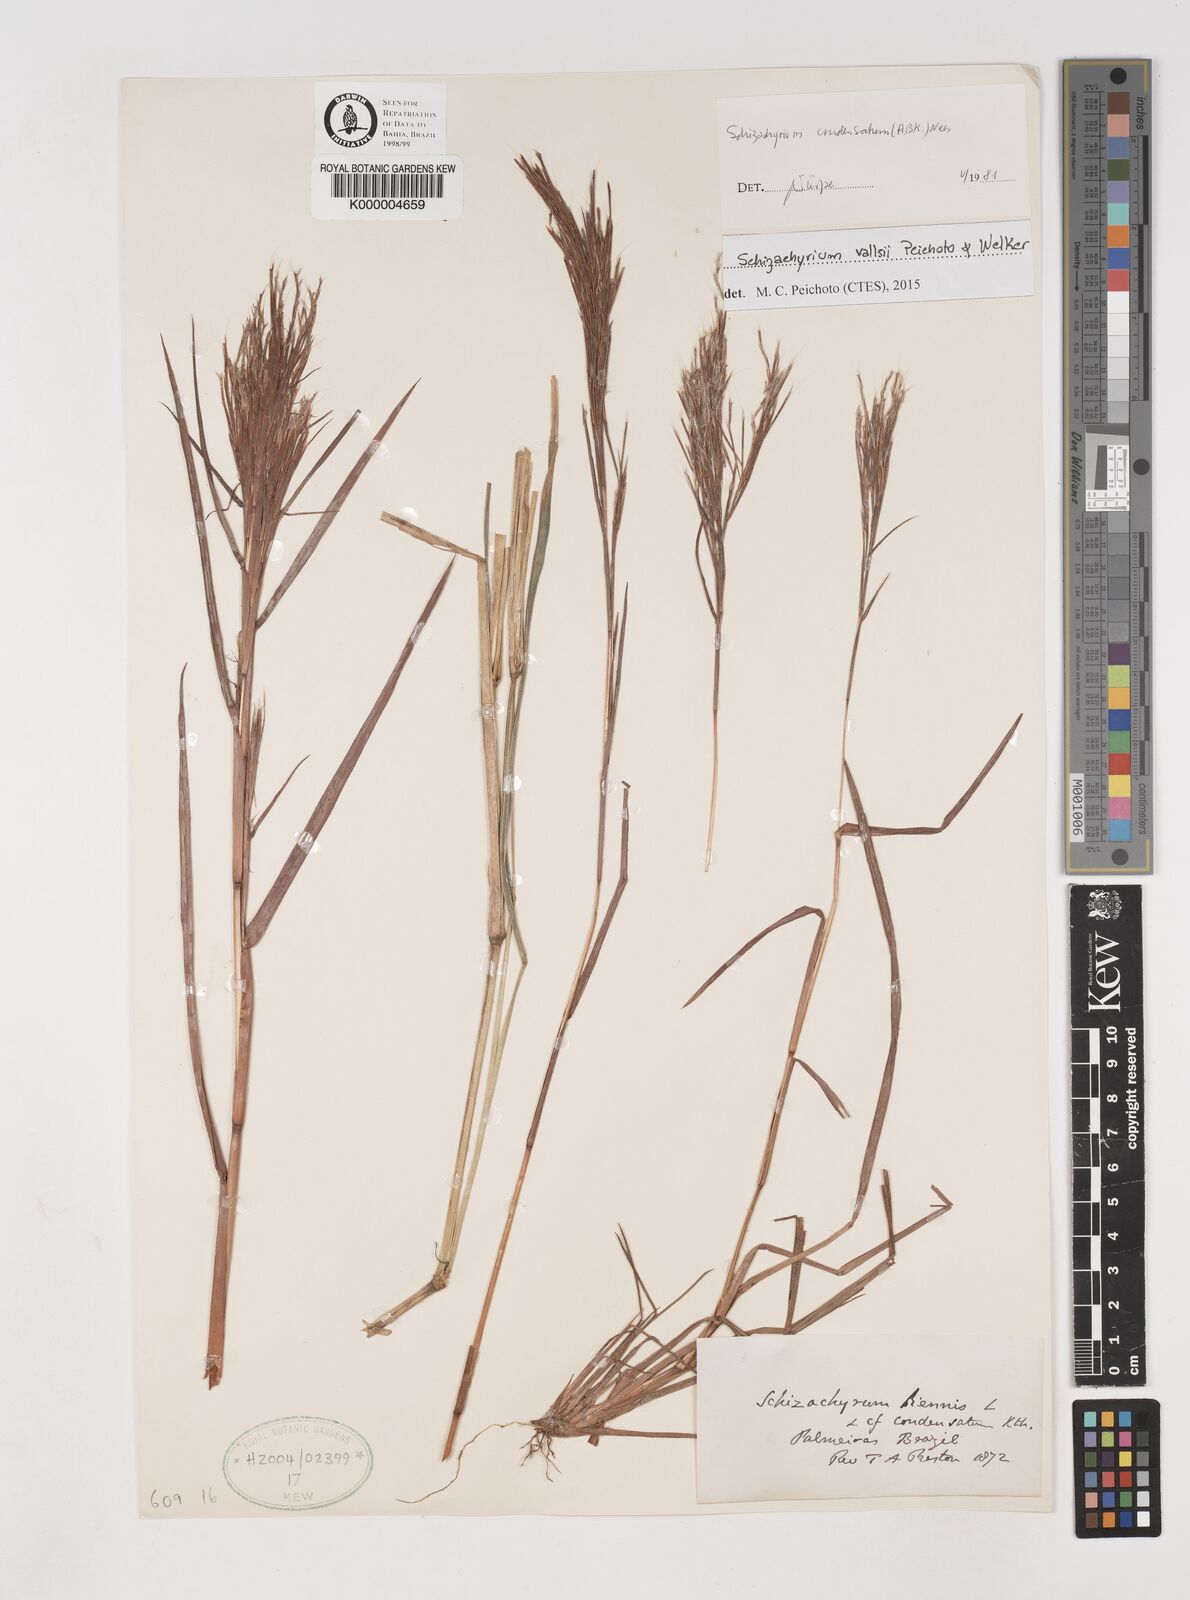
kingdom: Plantae
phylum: Tracheophyta
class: Liliopsida
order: Poales
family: Poaceae
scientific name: Poaceae
